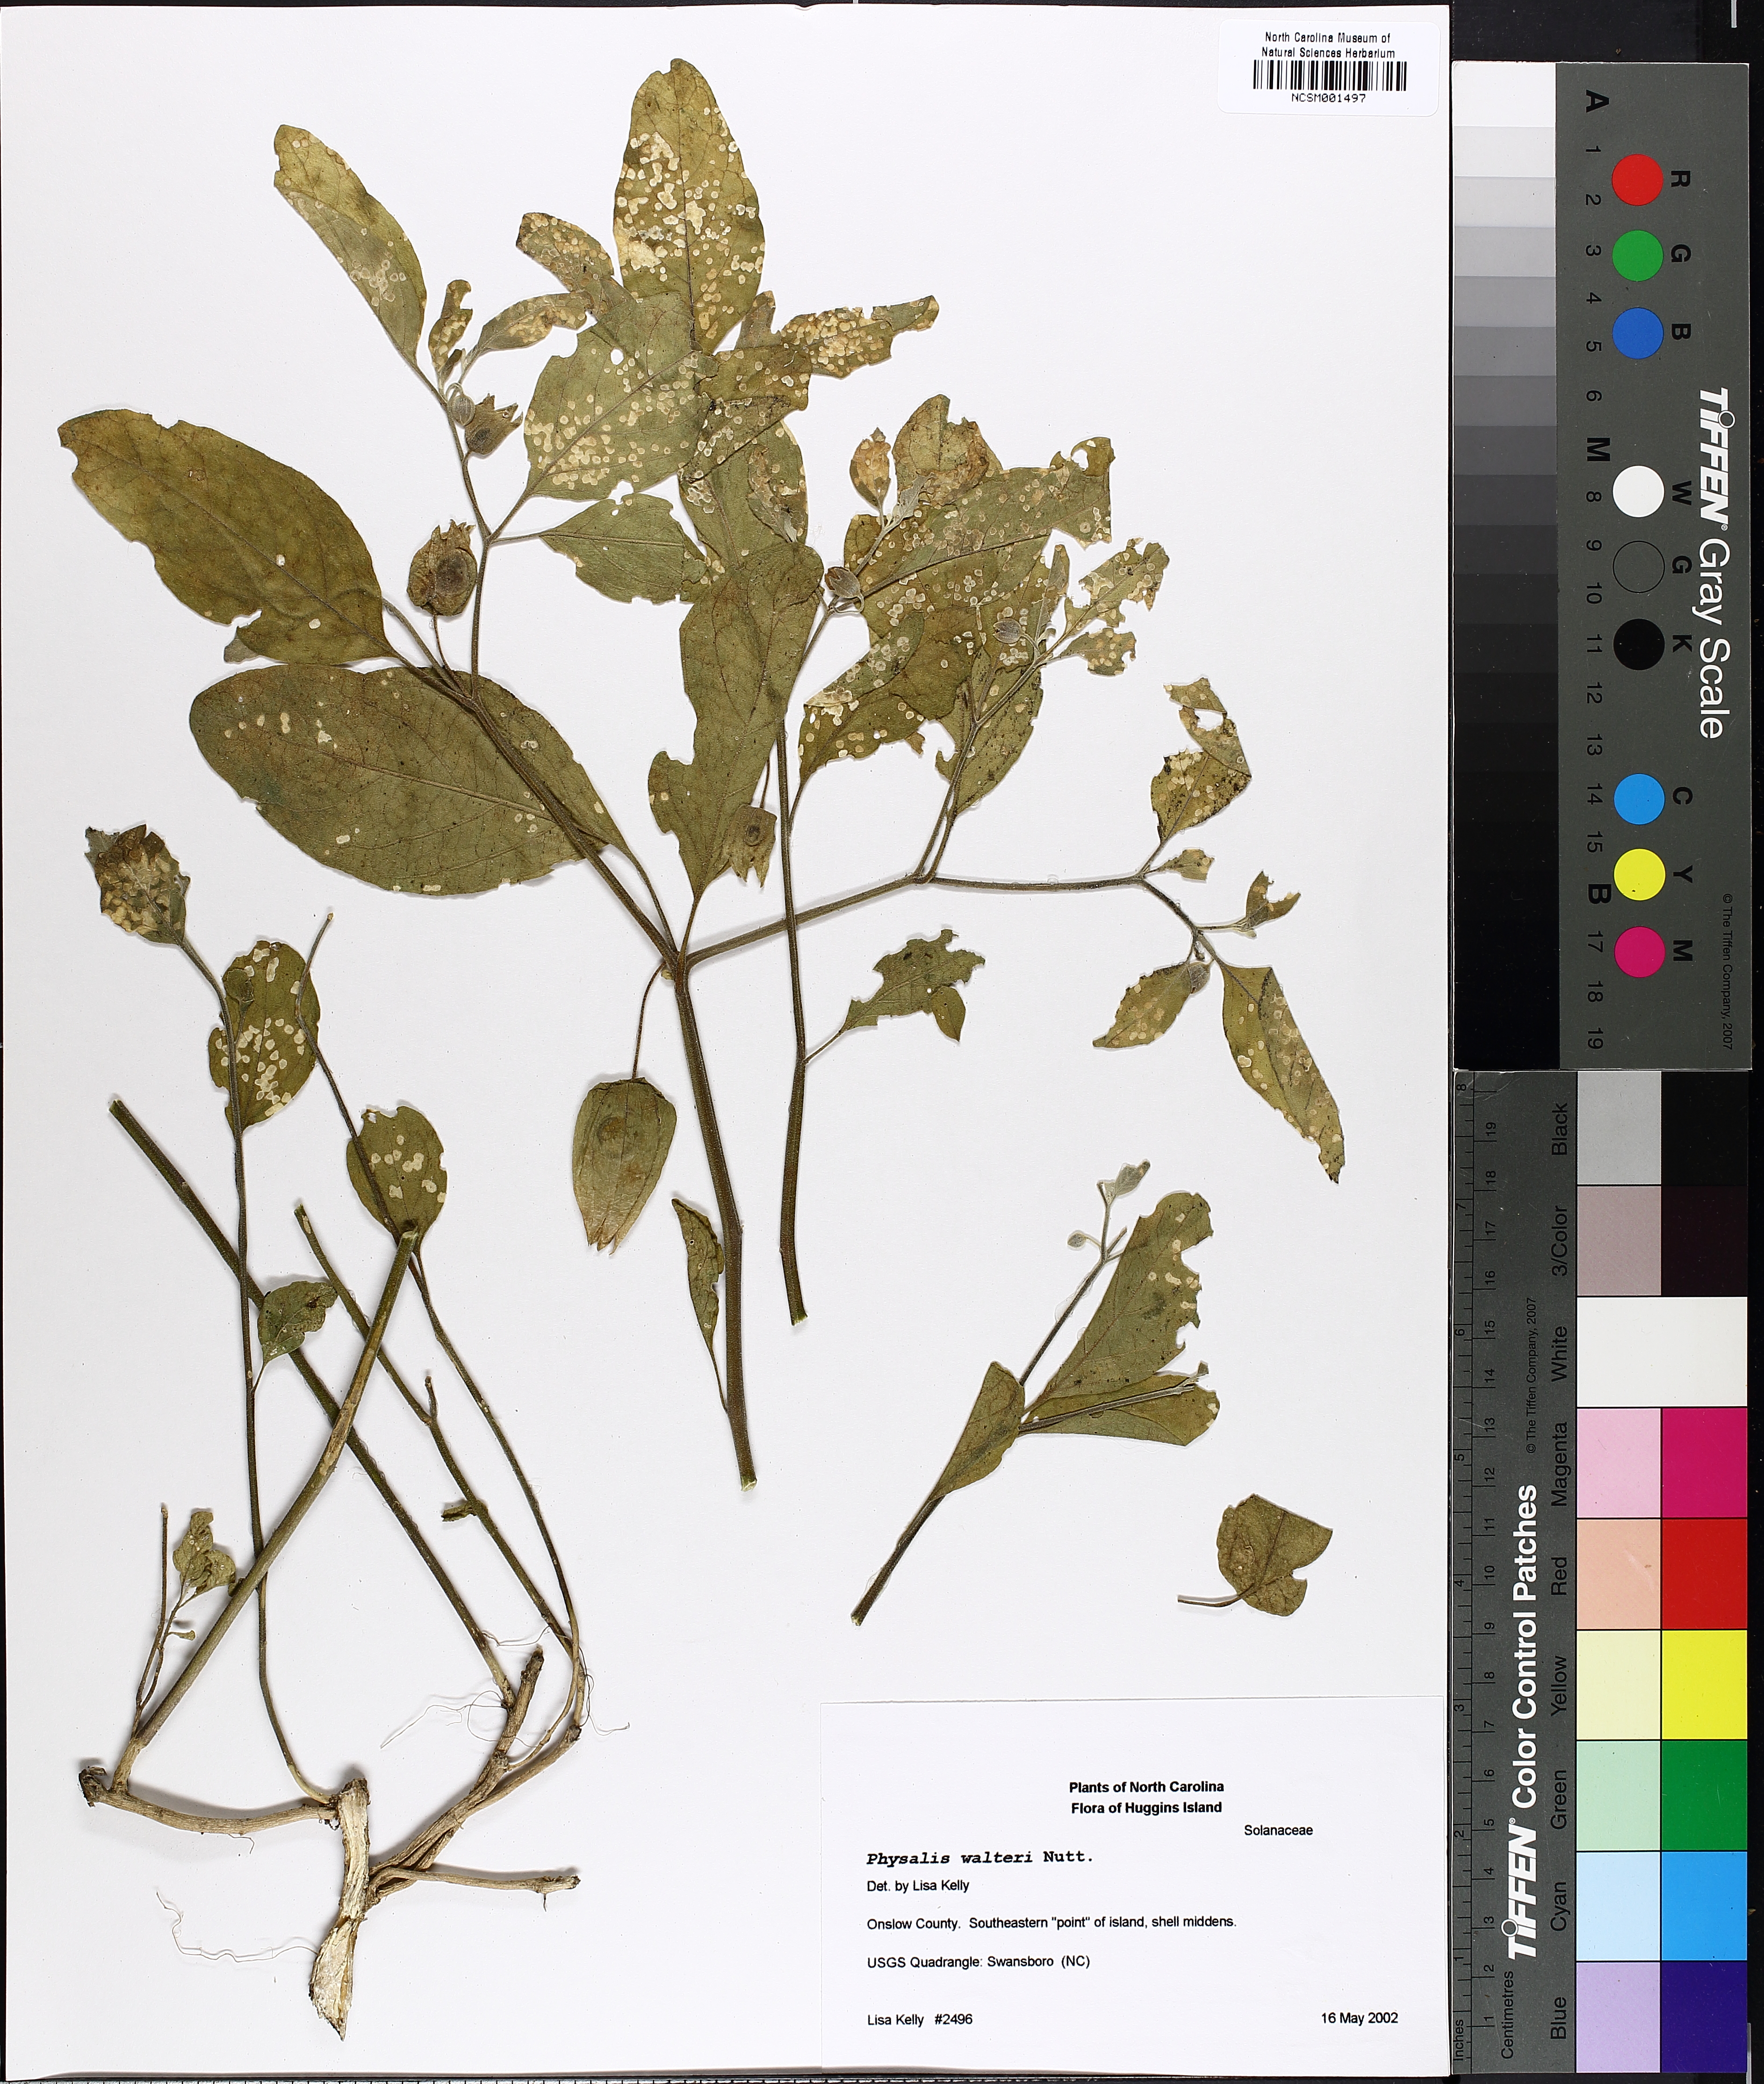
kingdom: Plantae
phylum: Tracheophyta
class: Magnoliopsida
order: Solanales
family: Solanaceae
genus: Physalis
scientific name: Physalis walteri
